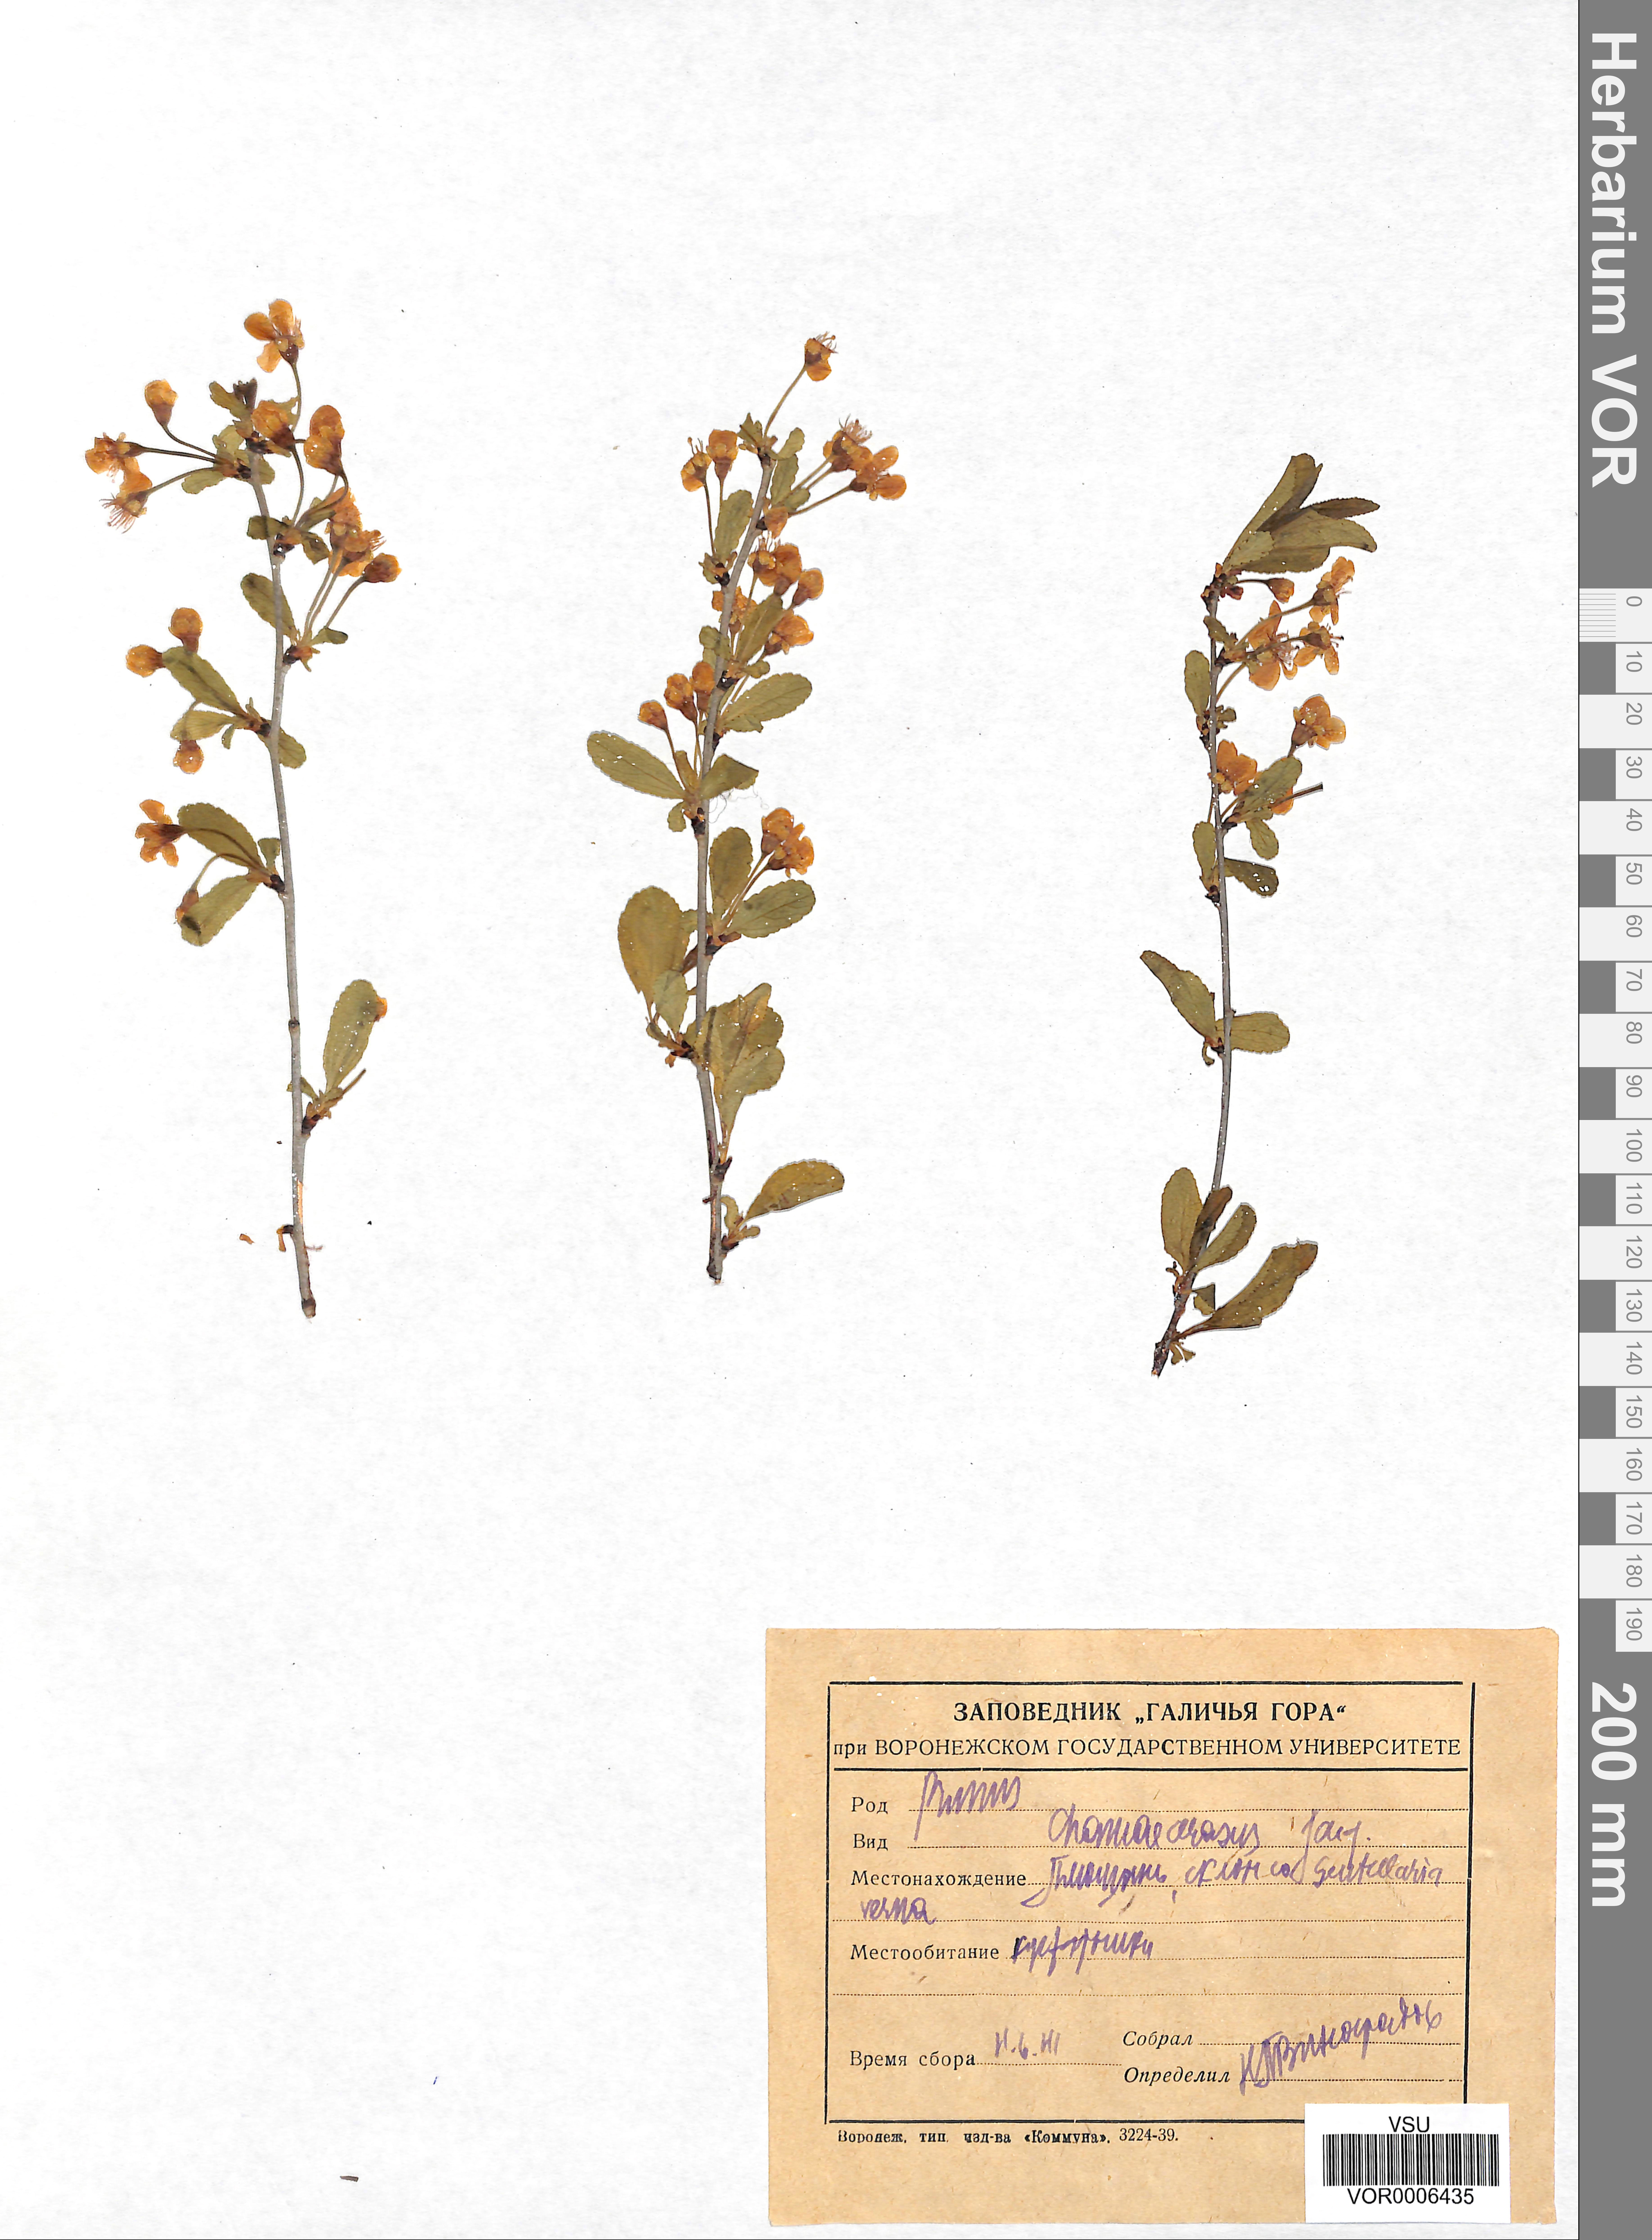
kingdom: Plantae
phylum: Tracheophyta
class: Magnoliopsida
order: Rosales
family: Rosaceae
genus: Prunus
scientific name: Prunus fruticosa
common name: European dwarf cherry
